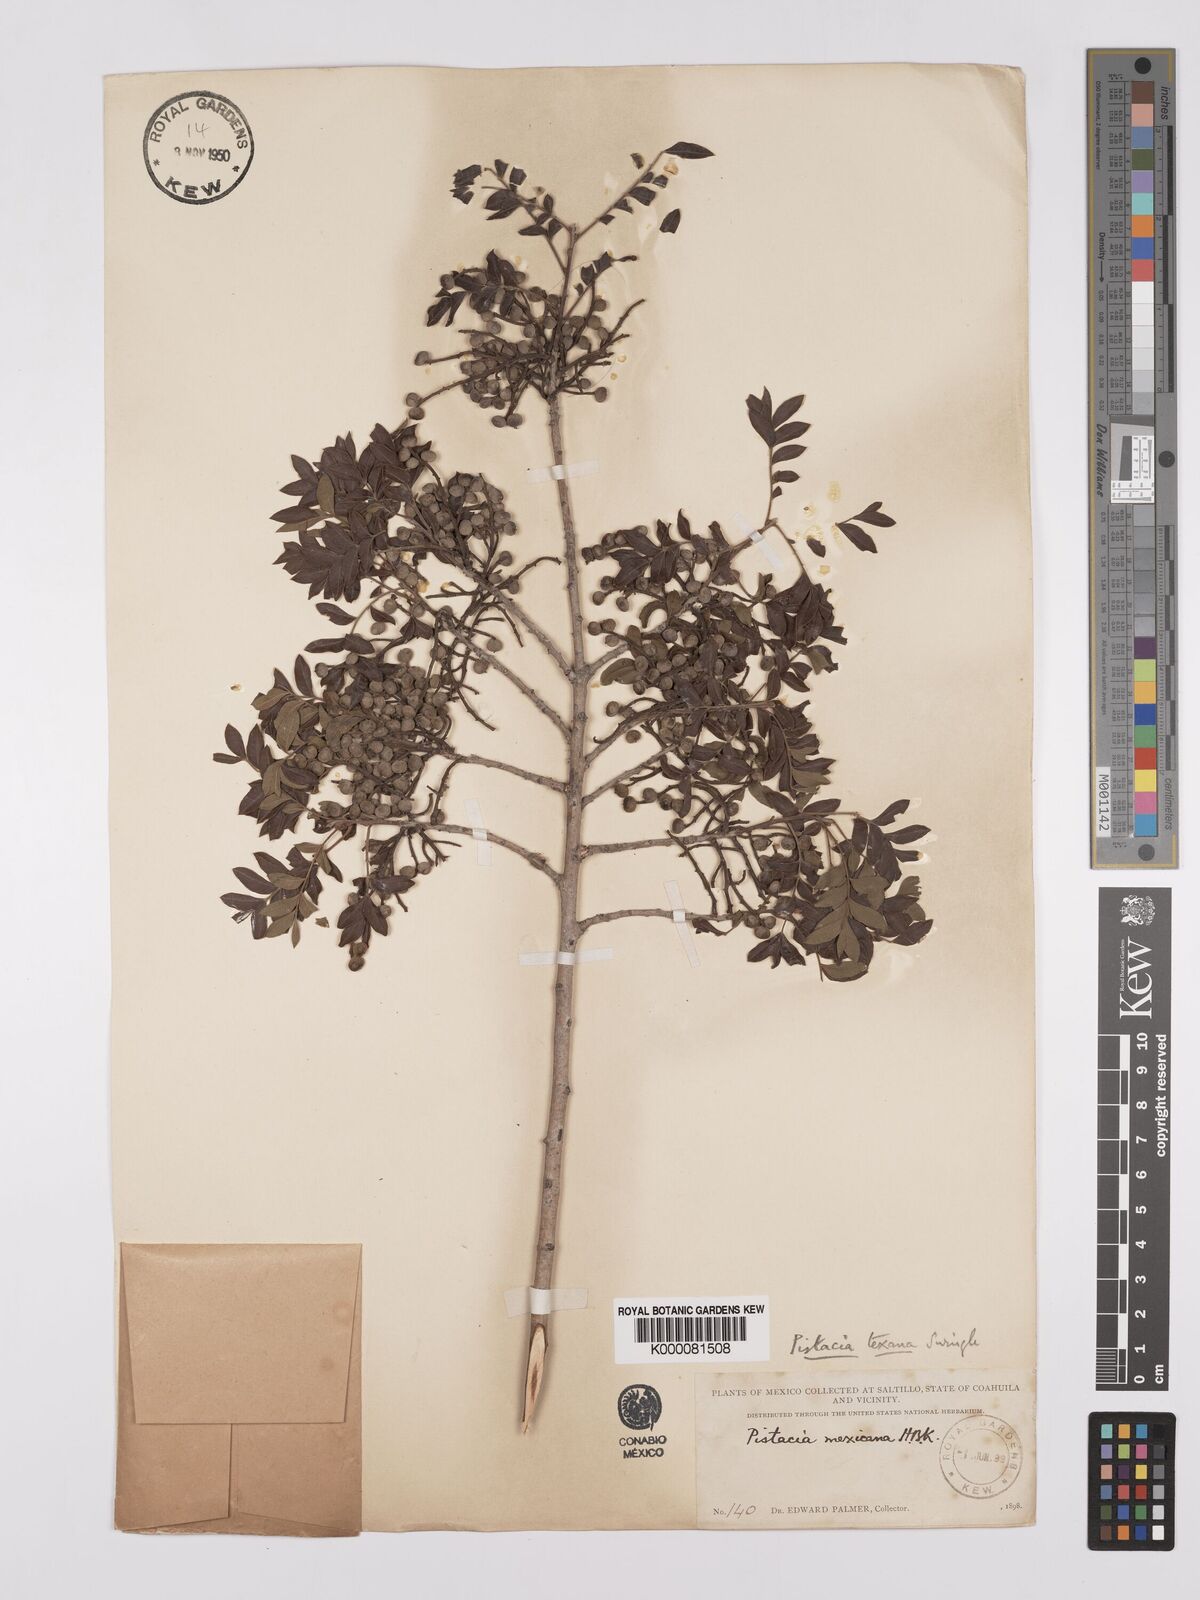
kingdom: Plantae
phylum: Tracheophyta
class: Magnoliopsida
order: Sapindales
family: Anacardiaceae
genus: Pistacia
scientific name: Pistacia
